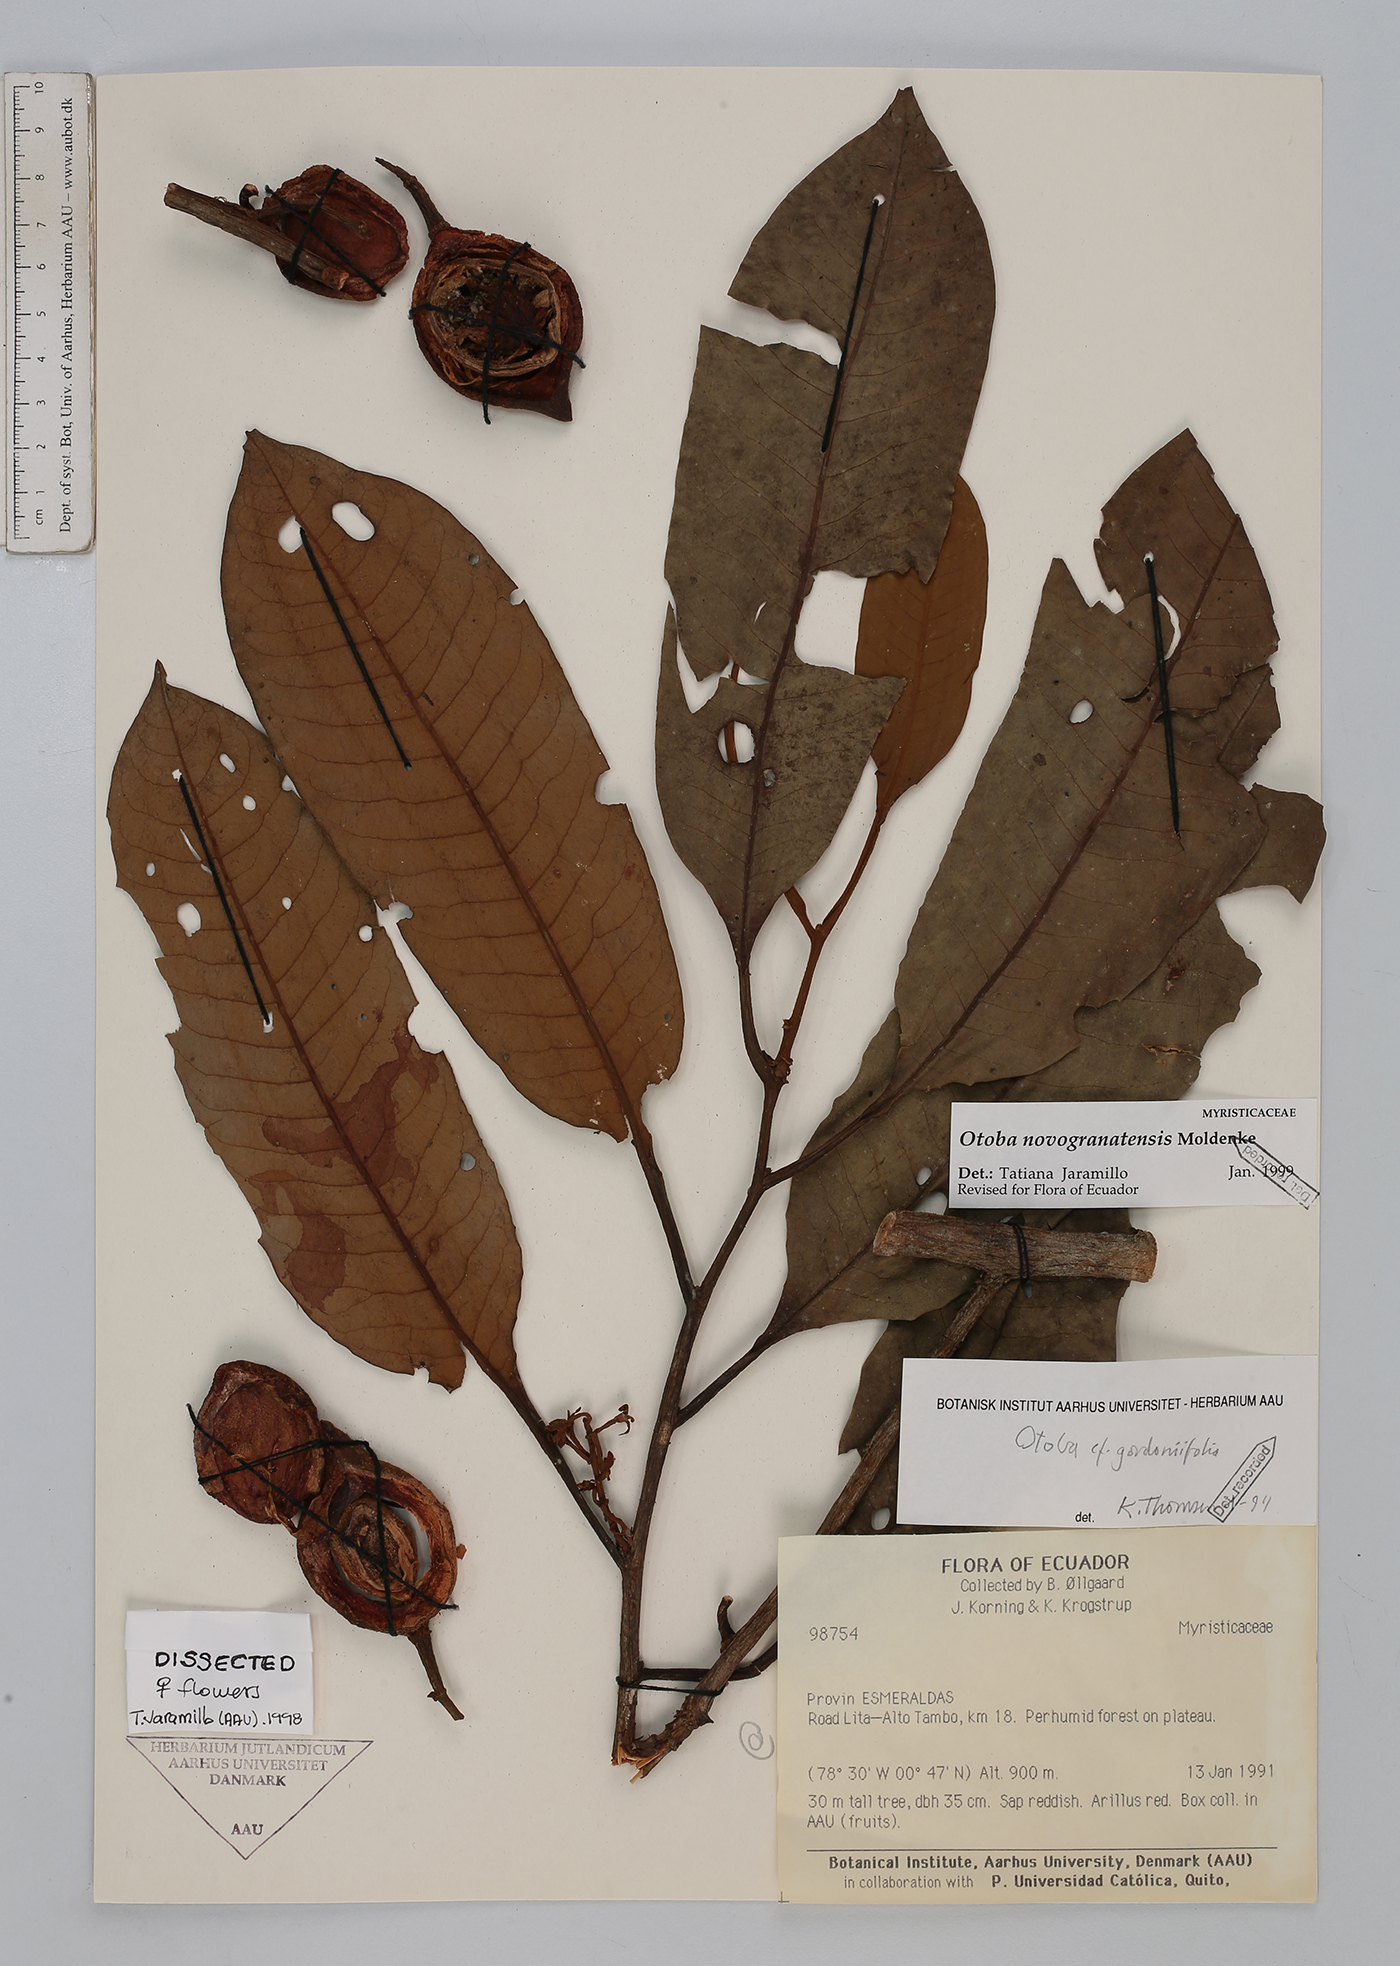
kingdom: Plantae
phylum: Tracheophyta
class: Magnoliopsida
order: Magnoliales
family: Myristicaceae
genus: Otoba
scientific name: Otoba novogranatensis
